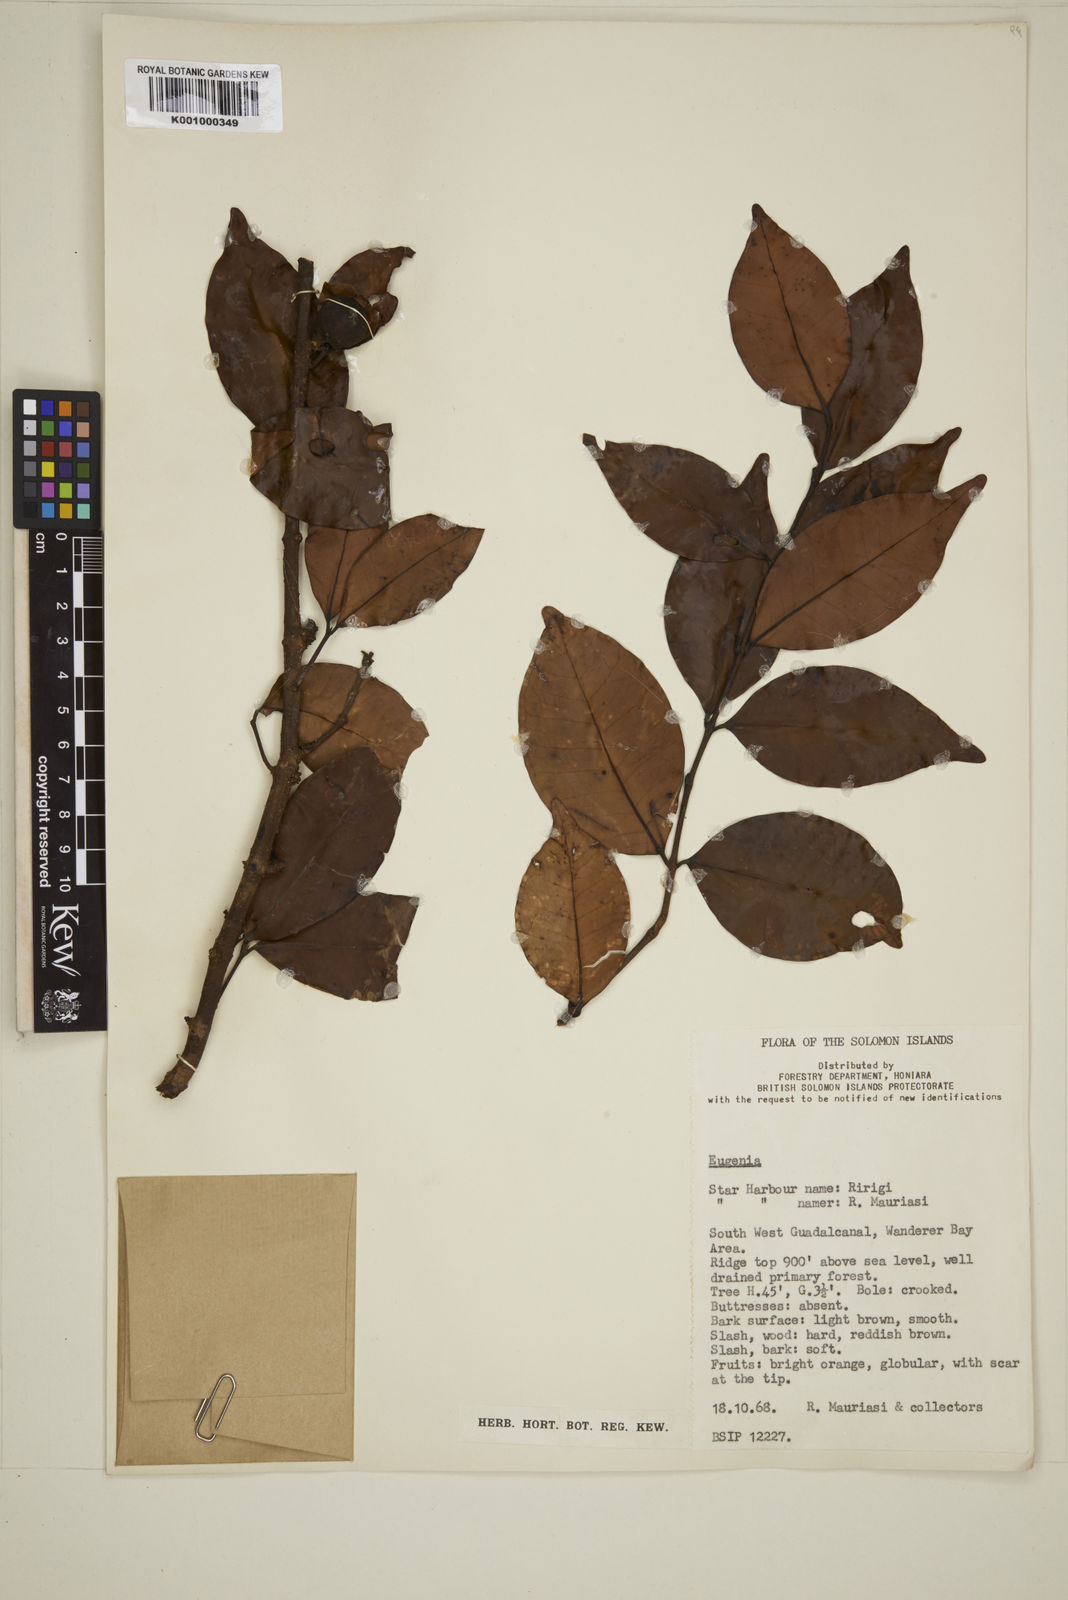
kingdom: Plantae
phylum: Tracheophyta
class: Magnoliopsida
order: Myrtales
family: Myrtaceae
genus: Eugenia
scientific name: Eugenia
